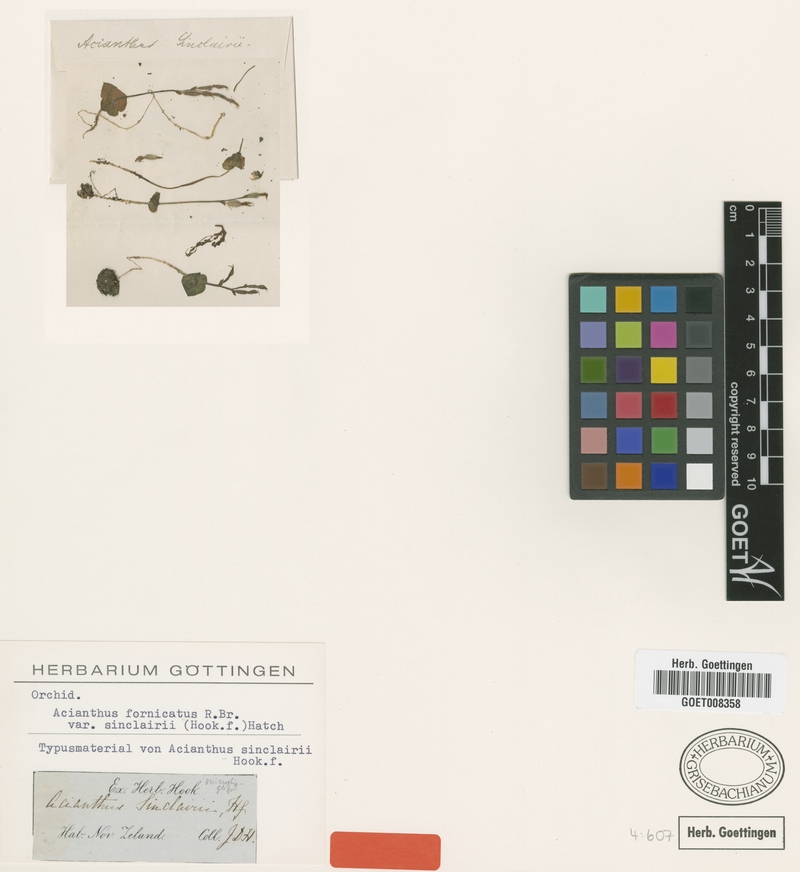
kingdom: Plantae
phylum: Tracheophyta
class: Liliopsida
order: Asparagales
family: Orchidaceae
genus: Acianthus
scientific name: Acianthus fornicatus
